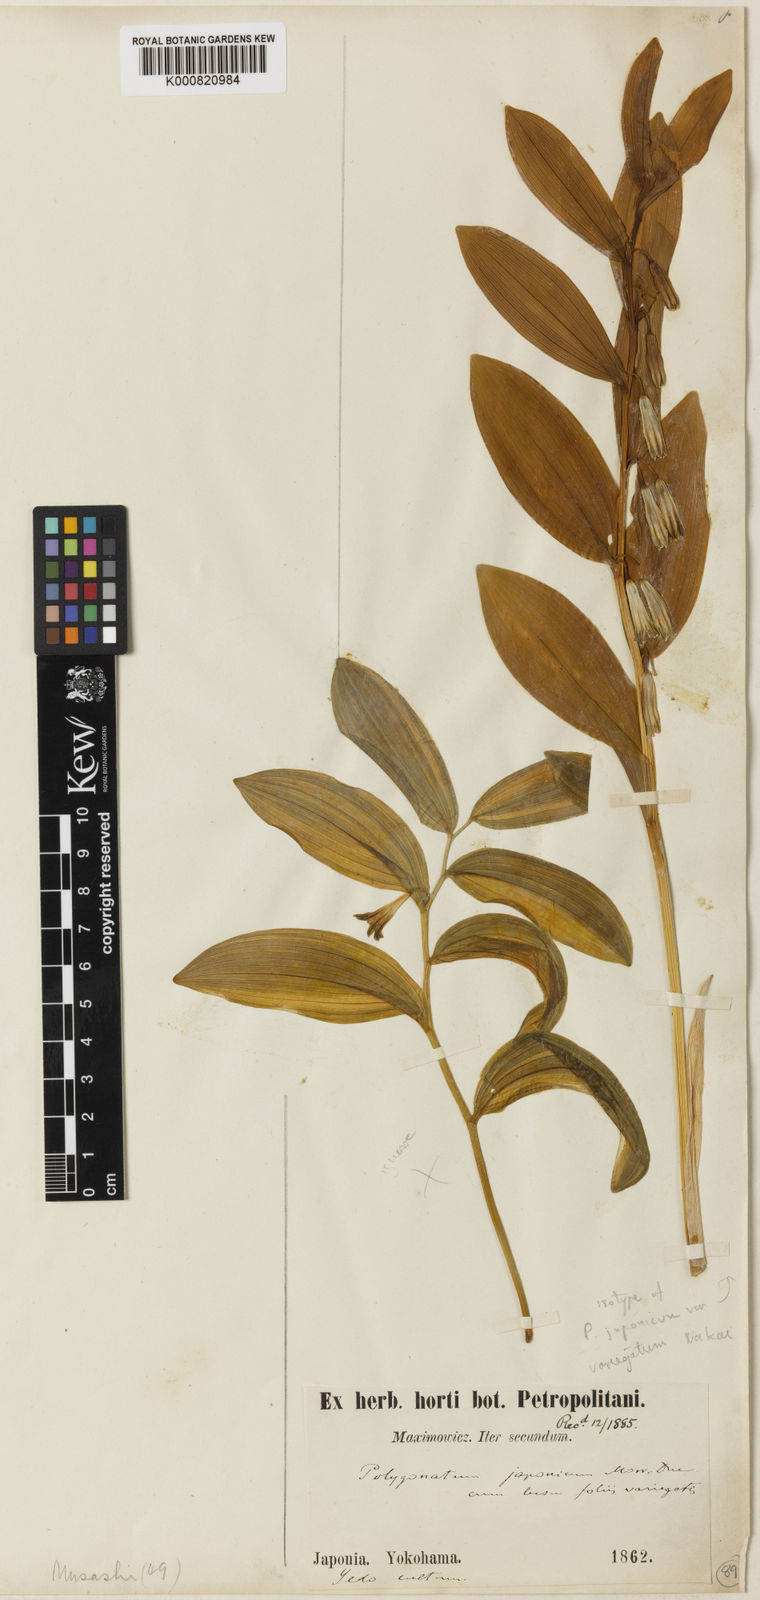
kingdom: Plantae
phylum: Tracheophyta
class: Liliopsida
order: Asparagales
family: Asparagaceae
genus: Polygonatum
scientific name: Polygonatum odoratum
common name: Angular solomon's-seal
